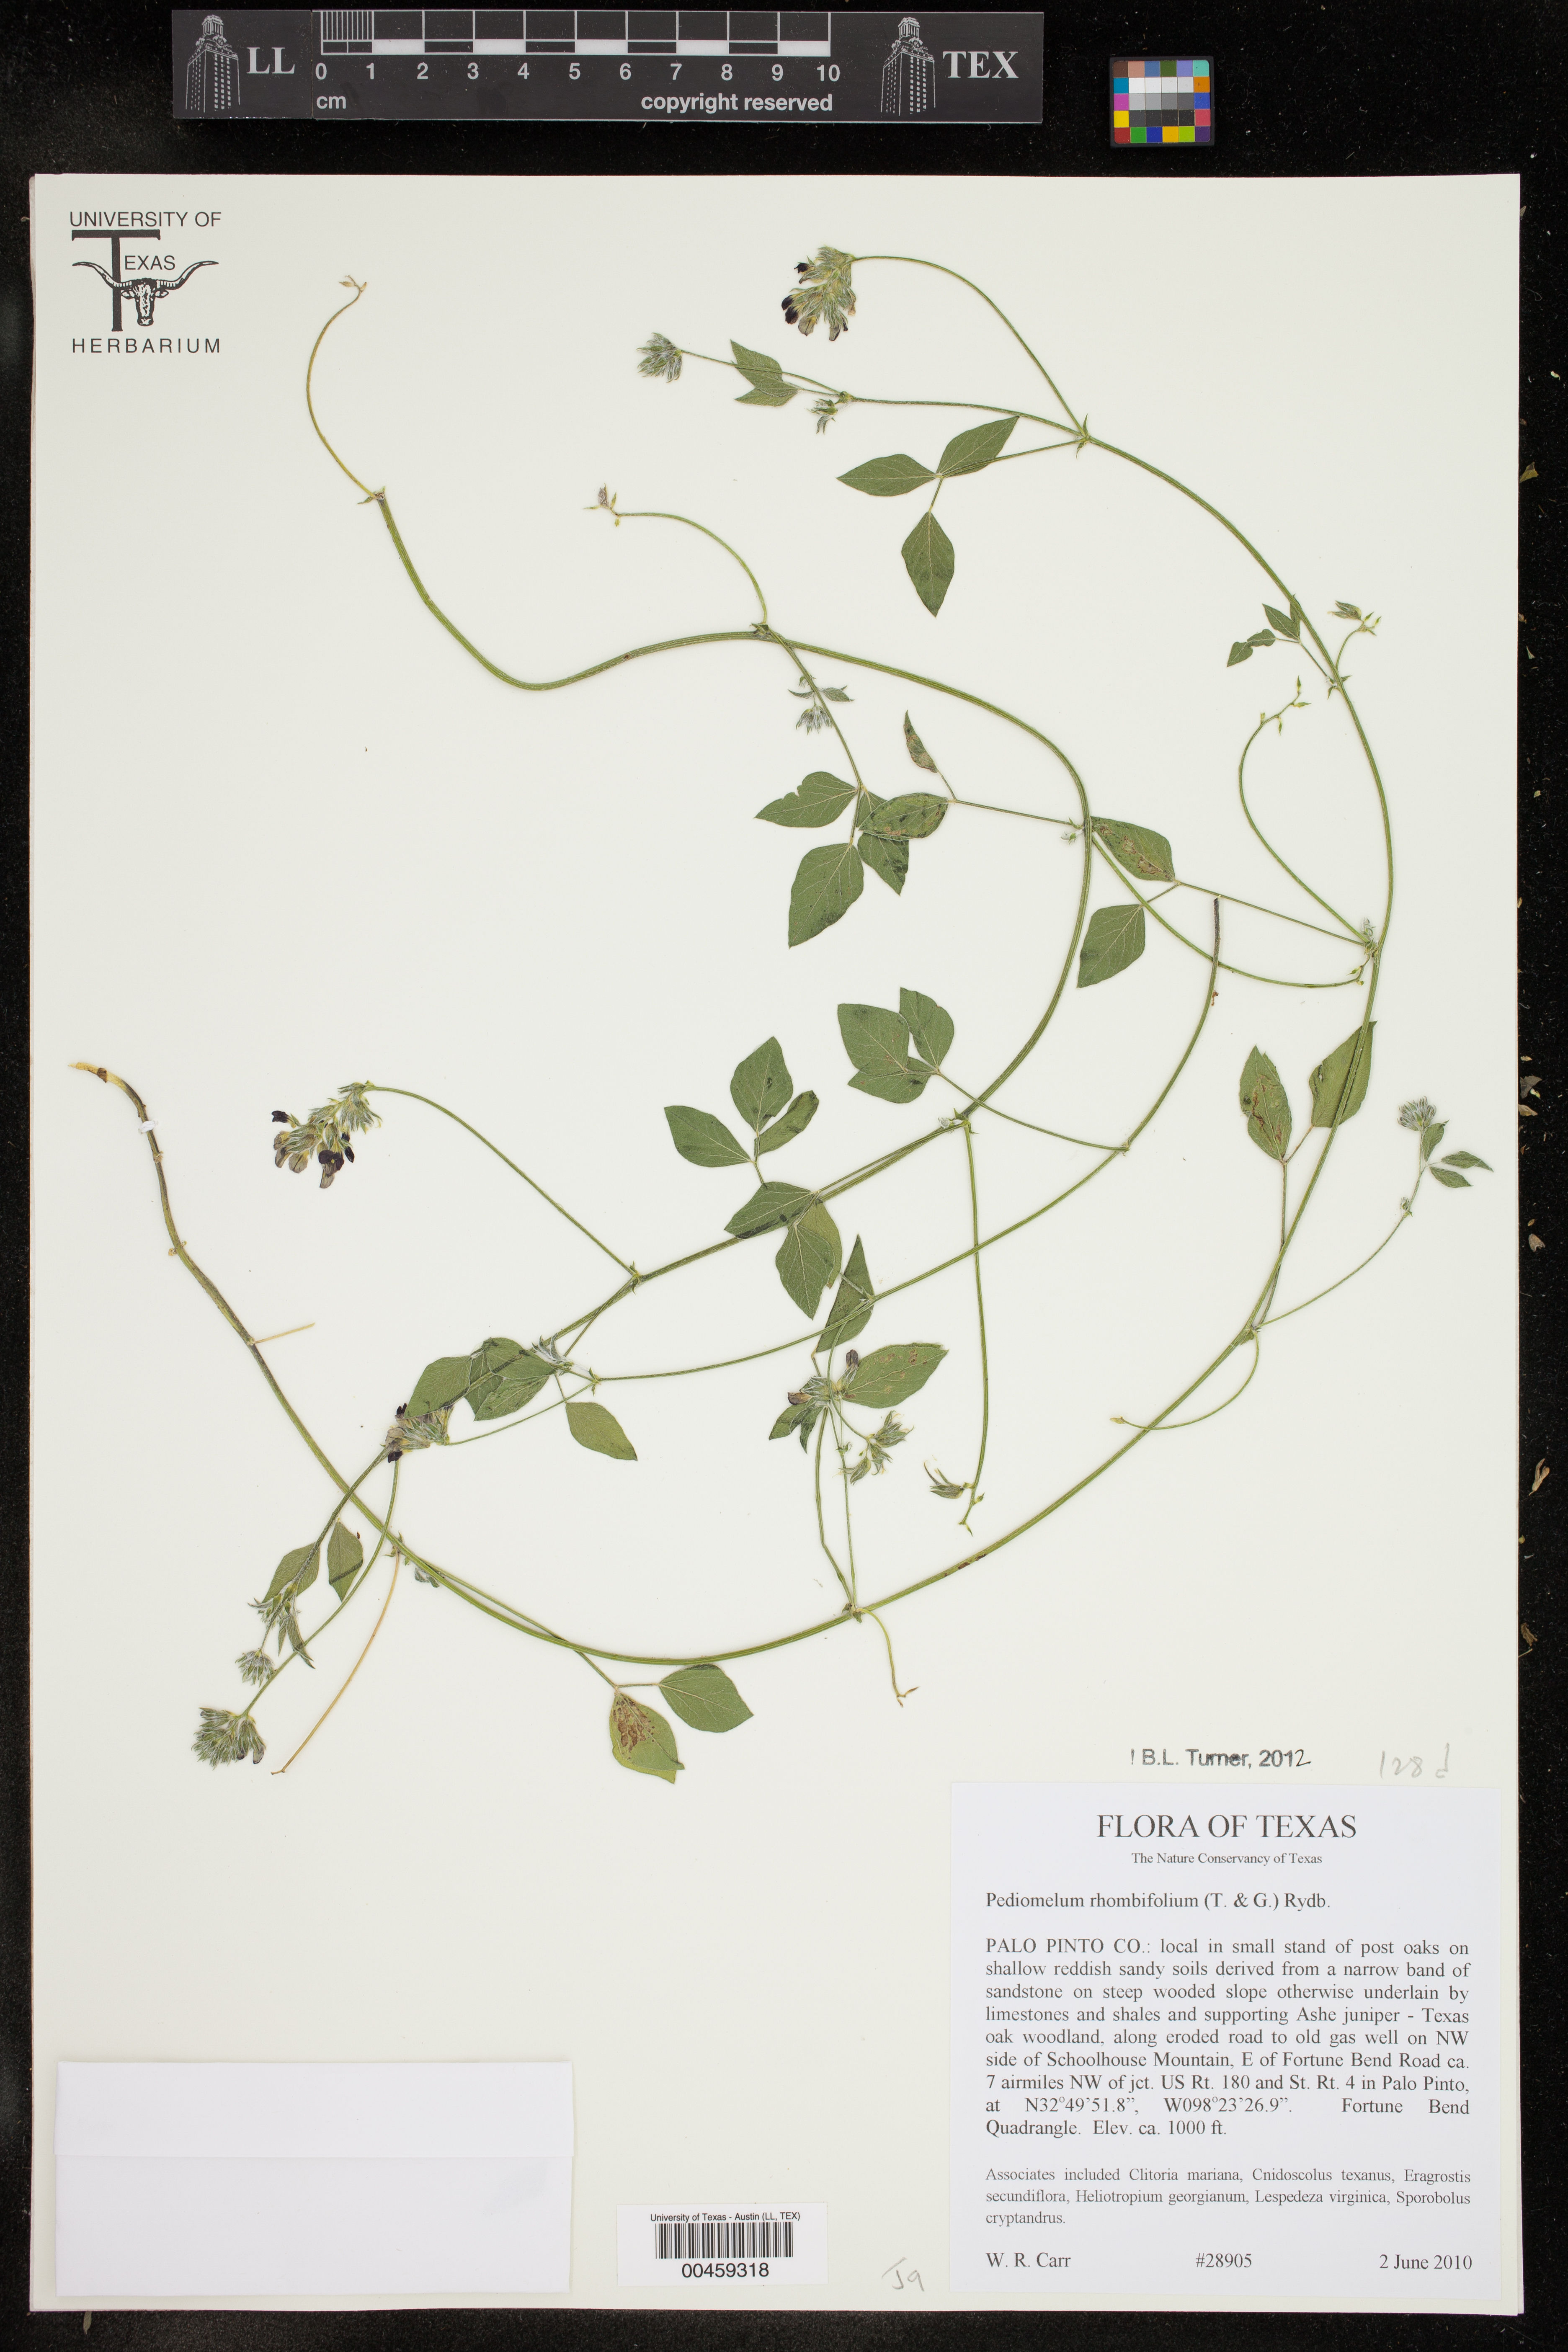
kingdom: Plantae
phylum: Tracheophyta
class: Magnoliopsida
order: Fabales
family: Fabaceae
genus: Pediomelum
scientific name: Pediomelum rhombifolium
